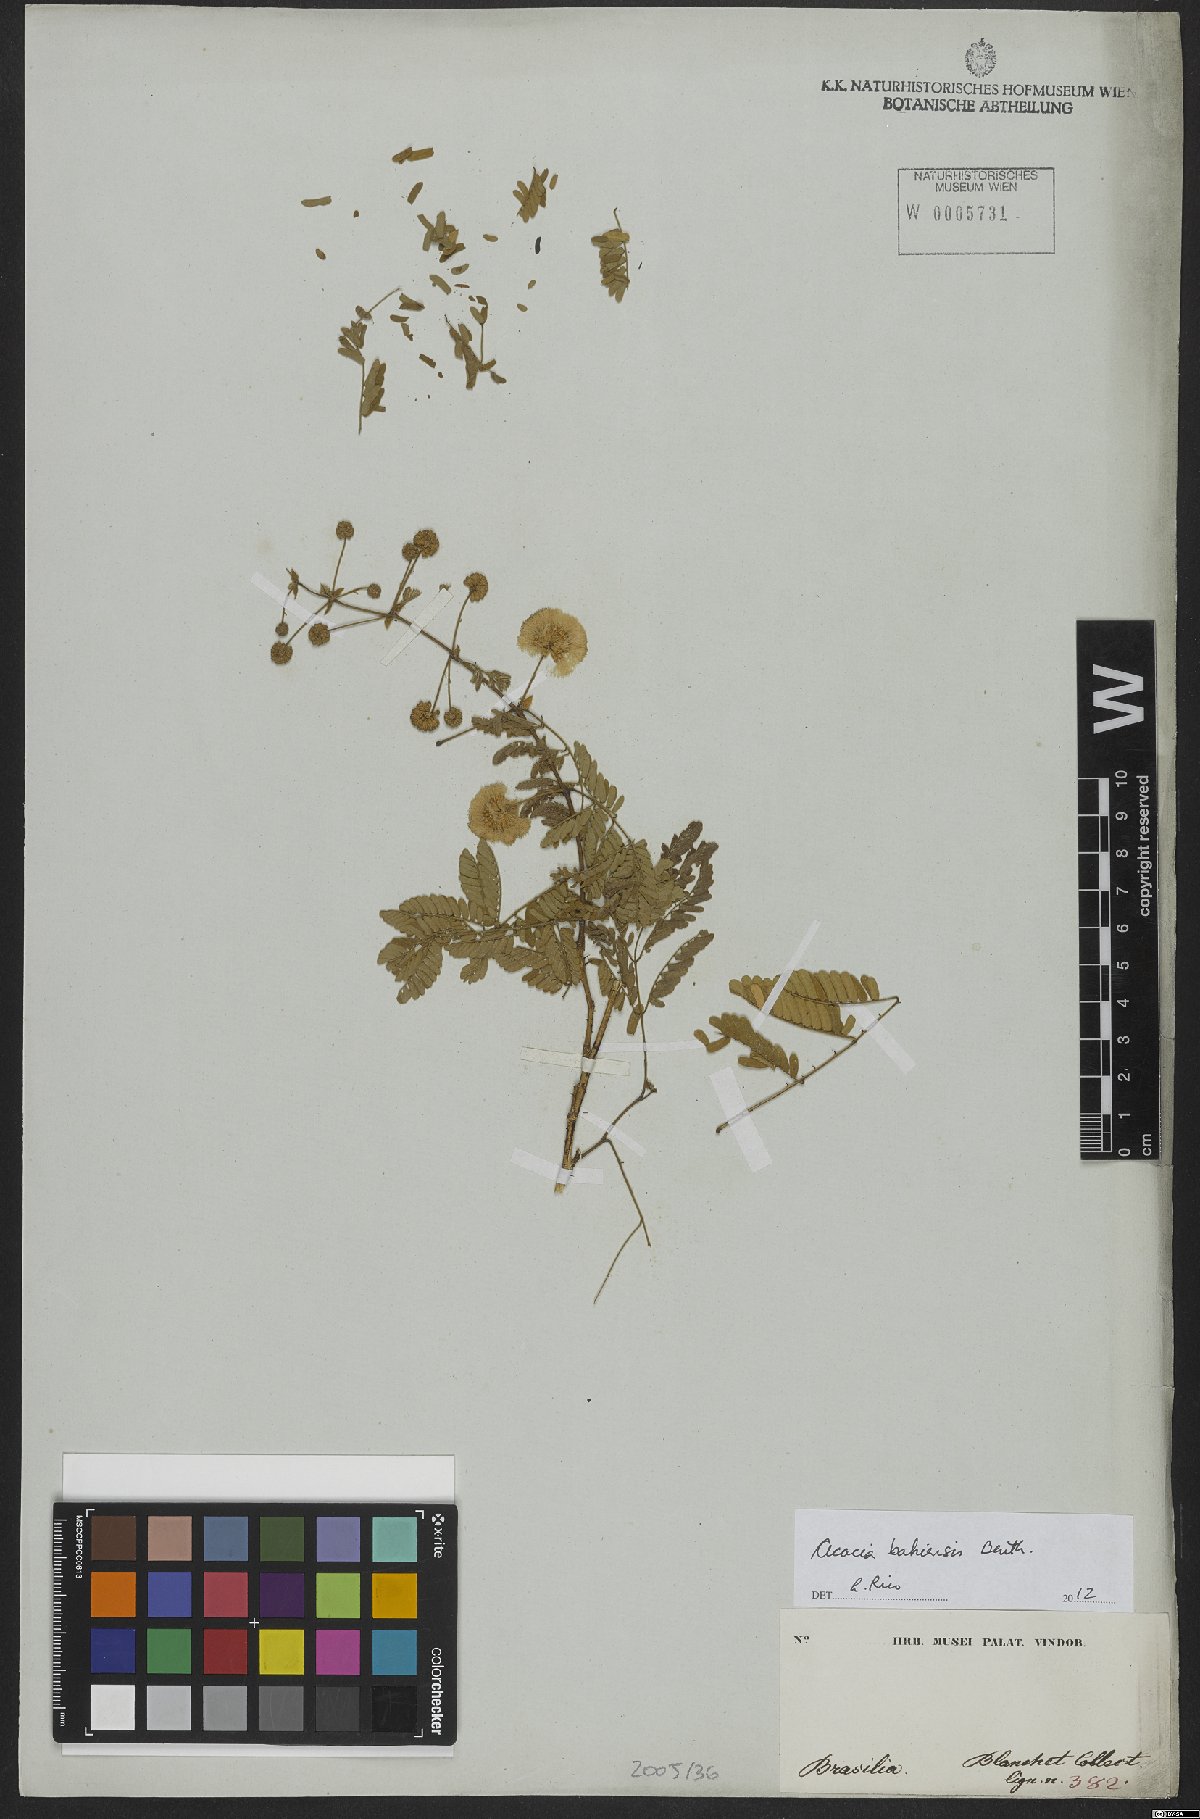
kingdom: Plantae
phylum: Tracheophyta
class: Magnoliopsida
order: Fabales
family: Fabaceae
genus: Senegalia
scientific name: Senegalia bahiensis
